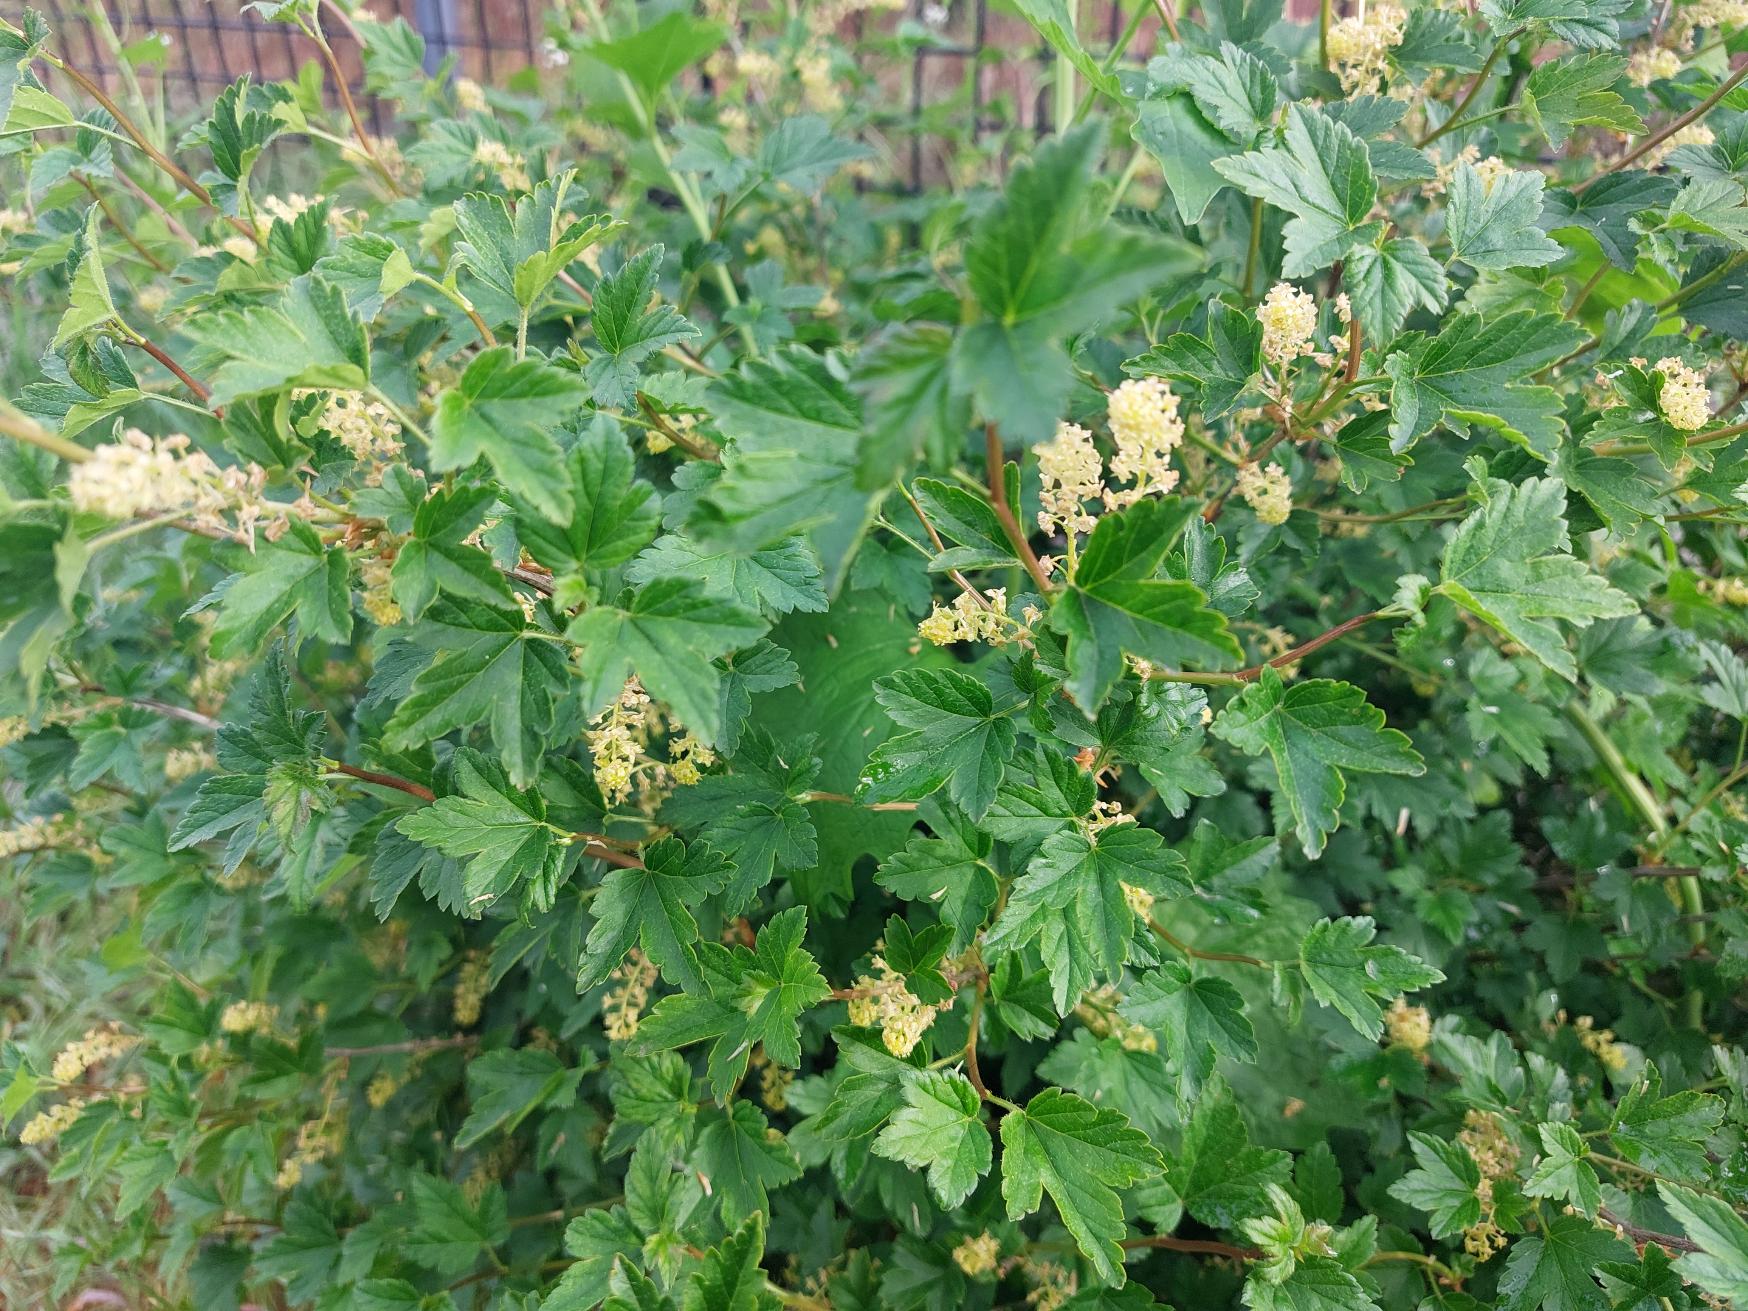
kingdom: Plantae
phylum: Tracheophyta
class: Magnoliopsida
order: Saxifragales
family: Grossulariaceae
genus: Ribes
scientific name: Ribes alpinum
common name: Fjeld-ribs
